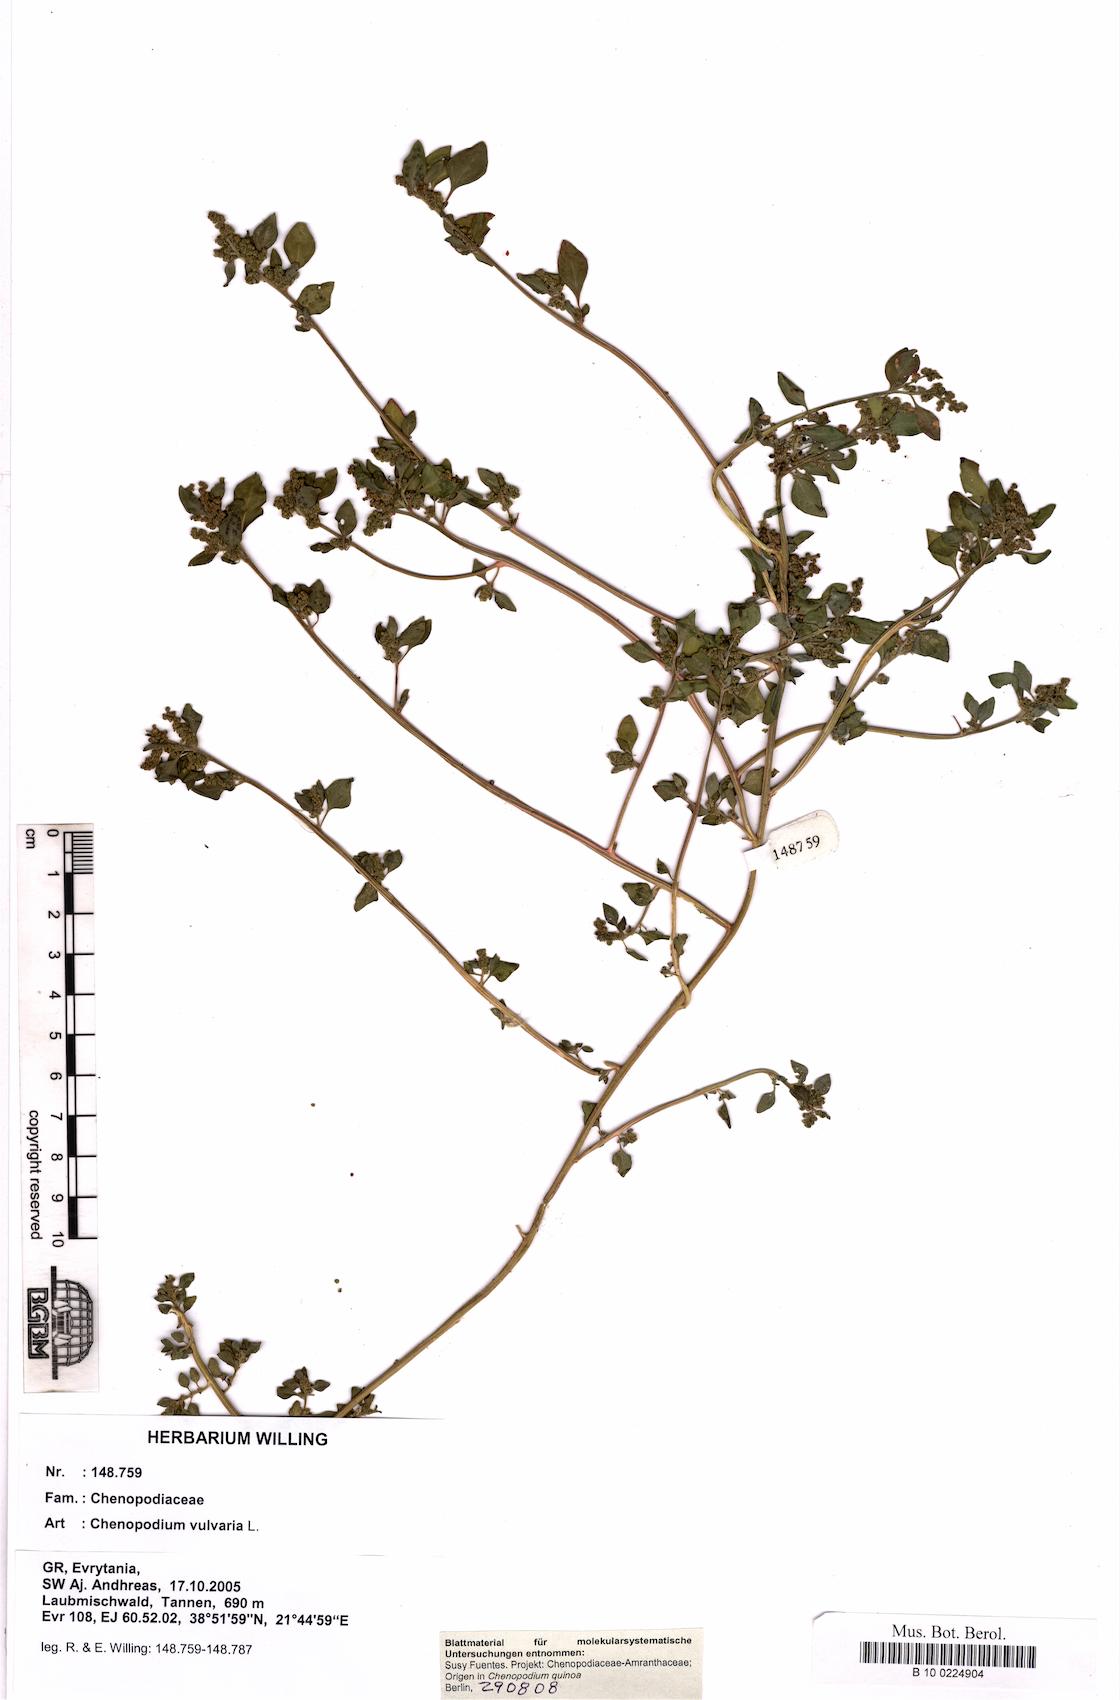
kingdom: Plantae
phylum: Tracheophyta
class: Magnoliopsida
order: Caryophyllales
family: Amaranthaceae
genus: Chenopodium
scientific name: Chenopodium vulvaria
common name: Stinking goosefoot
